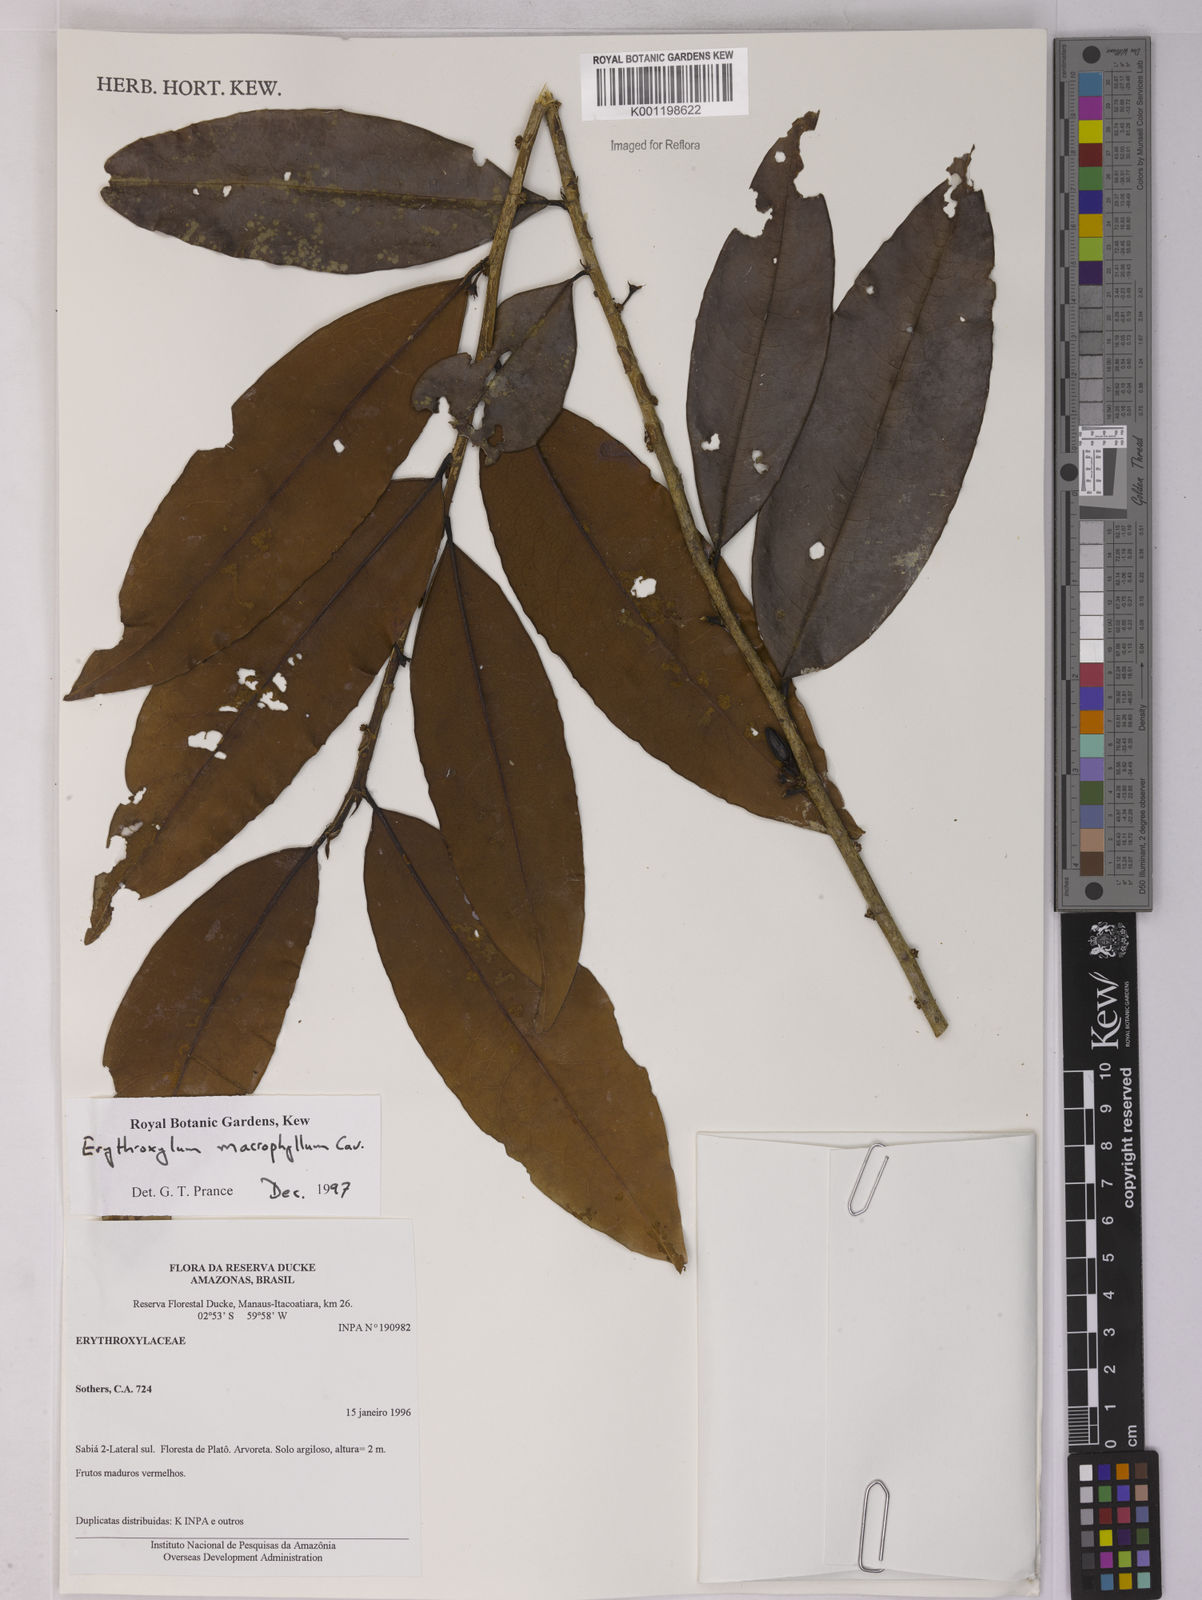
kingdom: Plantae
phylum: Tracheophyta
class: Magnoliopsida
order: Malpighiales
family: Erythroxylaceae
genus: Erythroxylum
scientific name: Erythroxylum macrophyllum
